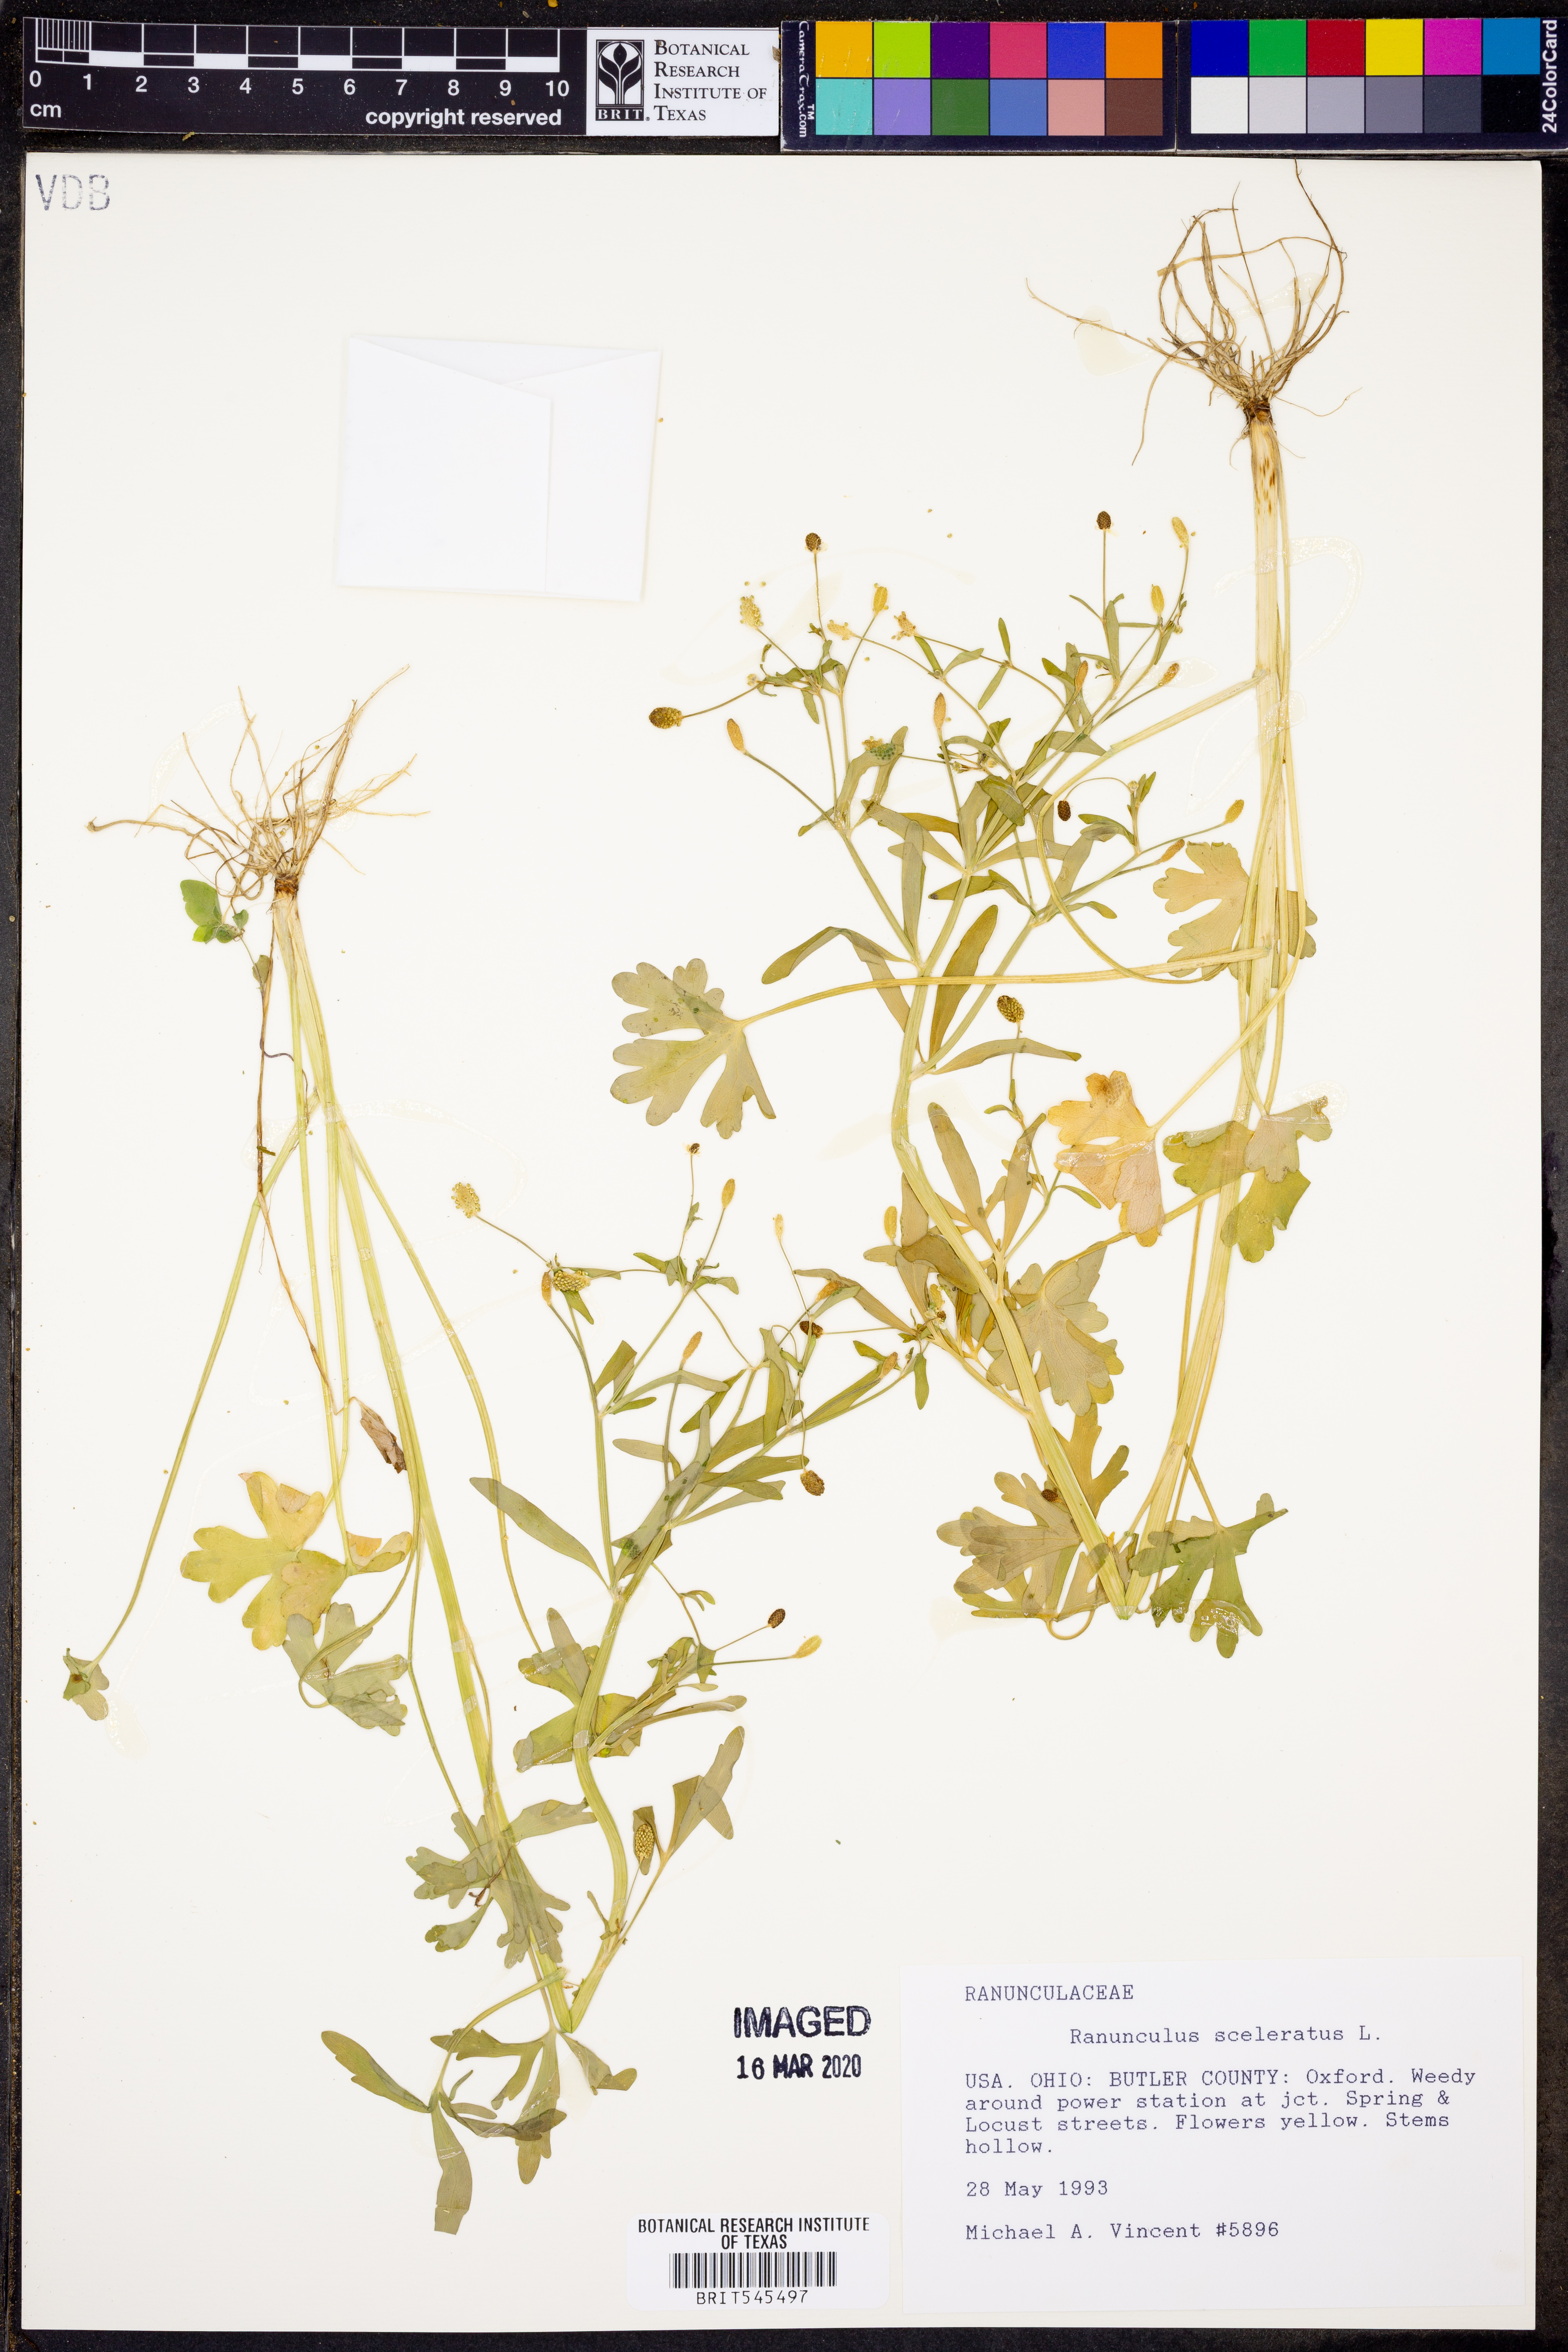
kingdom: Plantae
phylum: Tracheophyta
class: Magnoliopsida
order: Ranunculales
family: Ranunculaceae
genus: Ranunculus
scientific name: Ranunculus sceleratus
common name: Celery-leaved buttercup
